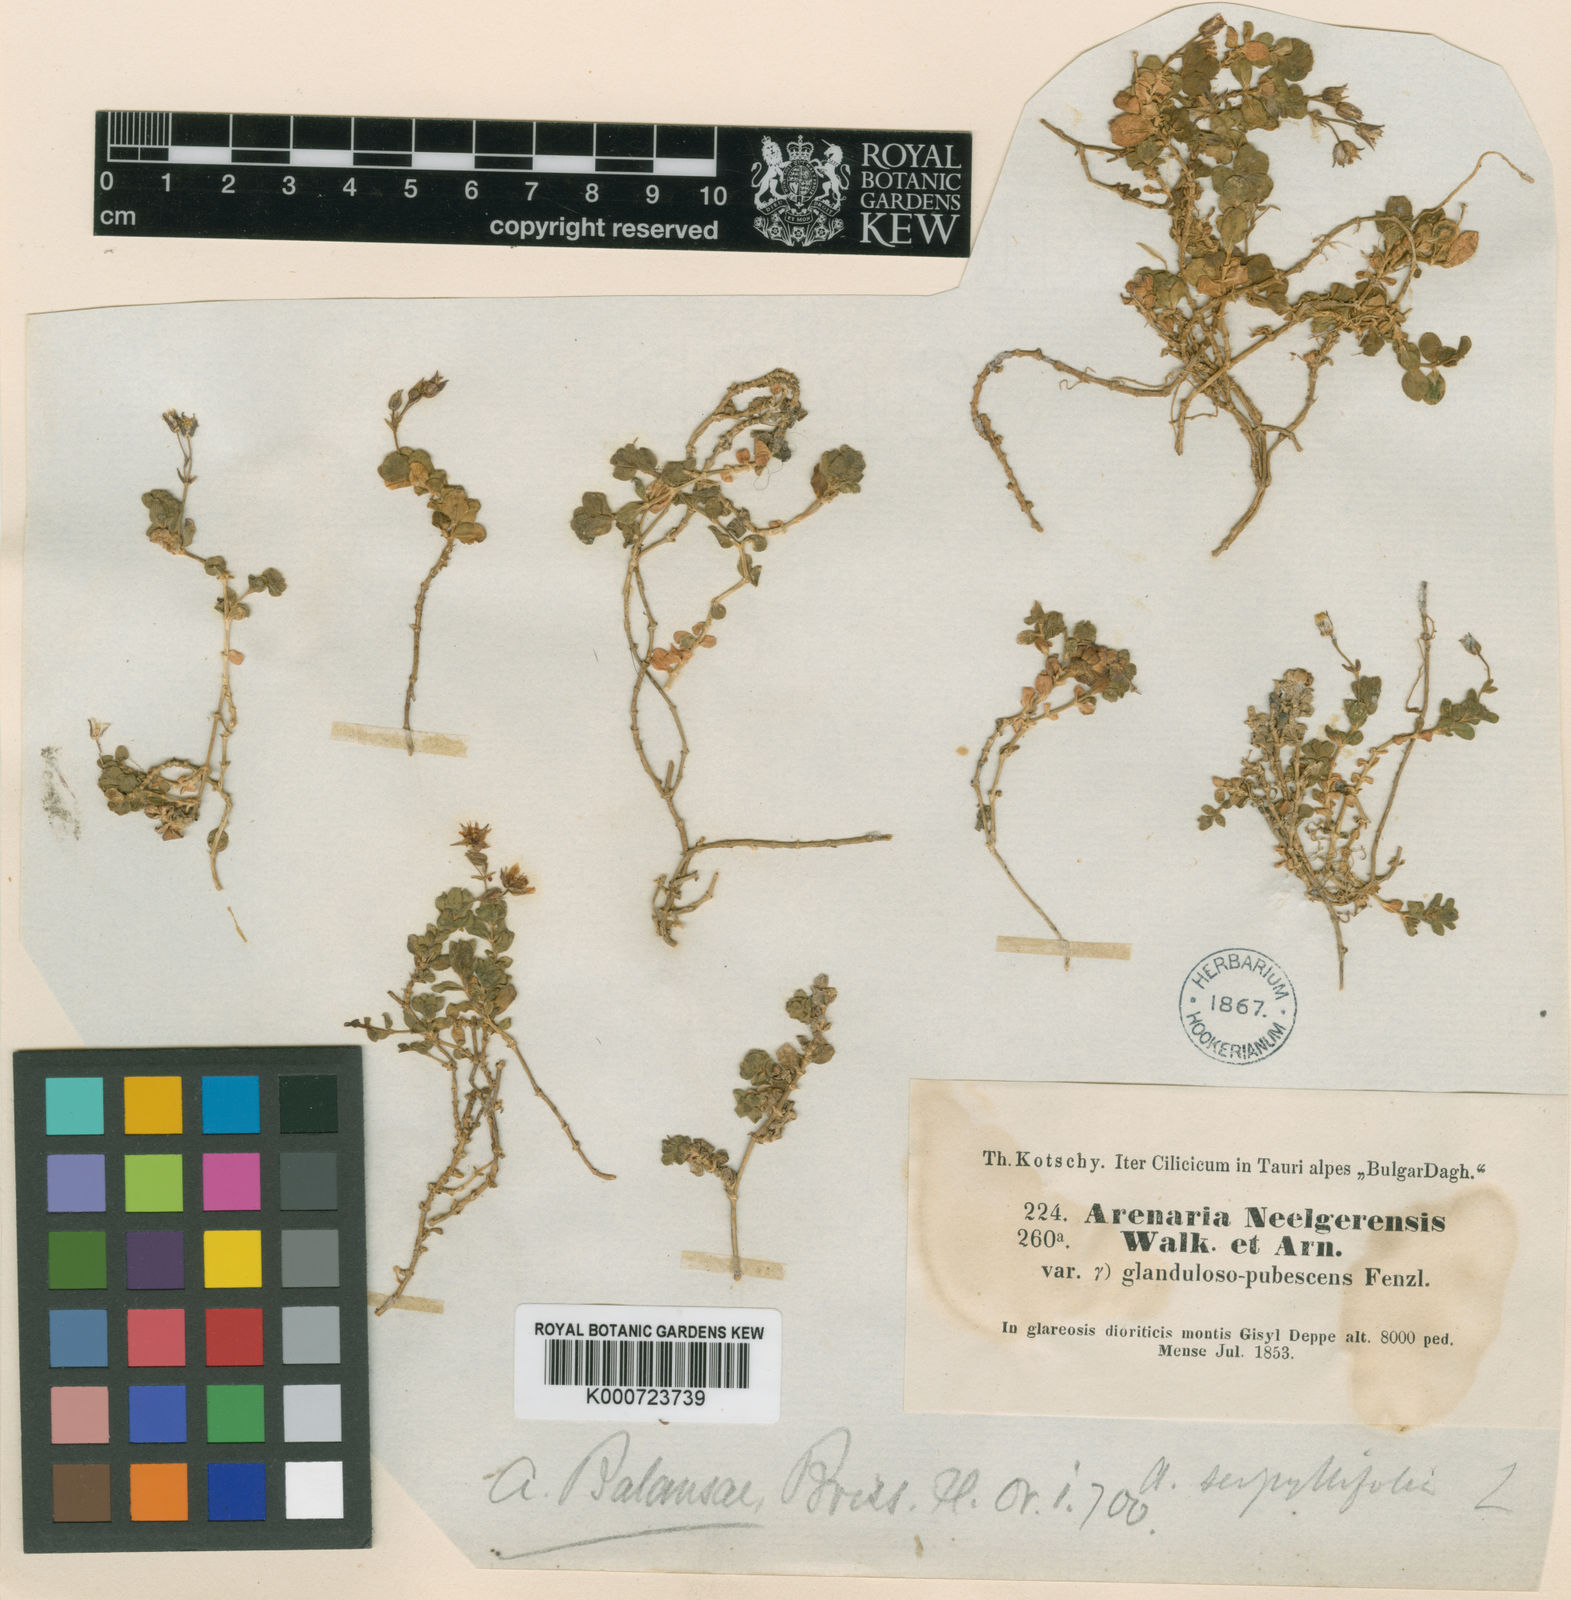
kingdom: Plantae
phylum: Tracheophyta
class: Magnoliopsida
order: Caryophyllales
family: Caryophyllaceae
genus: Arenaria
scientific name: Arenaria balansae
